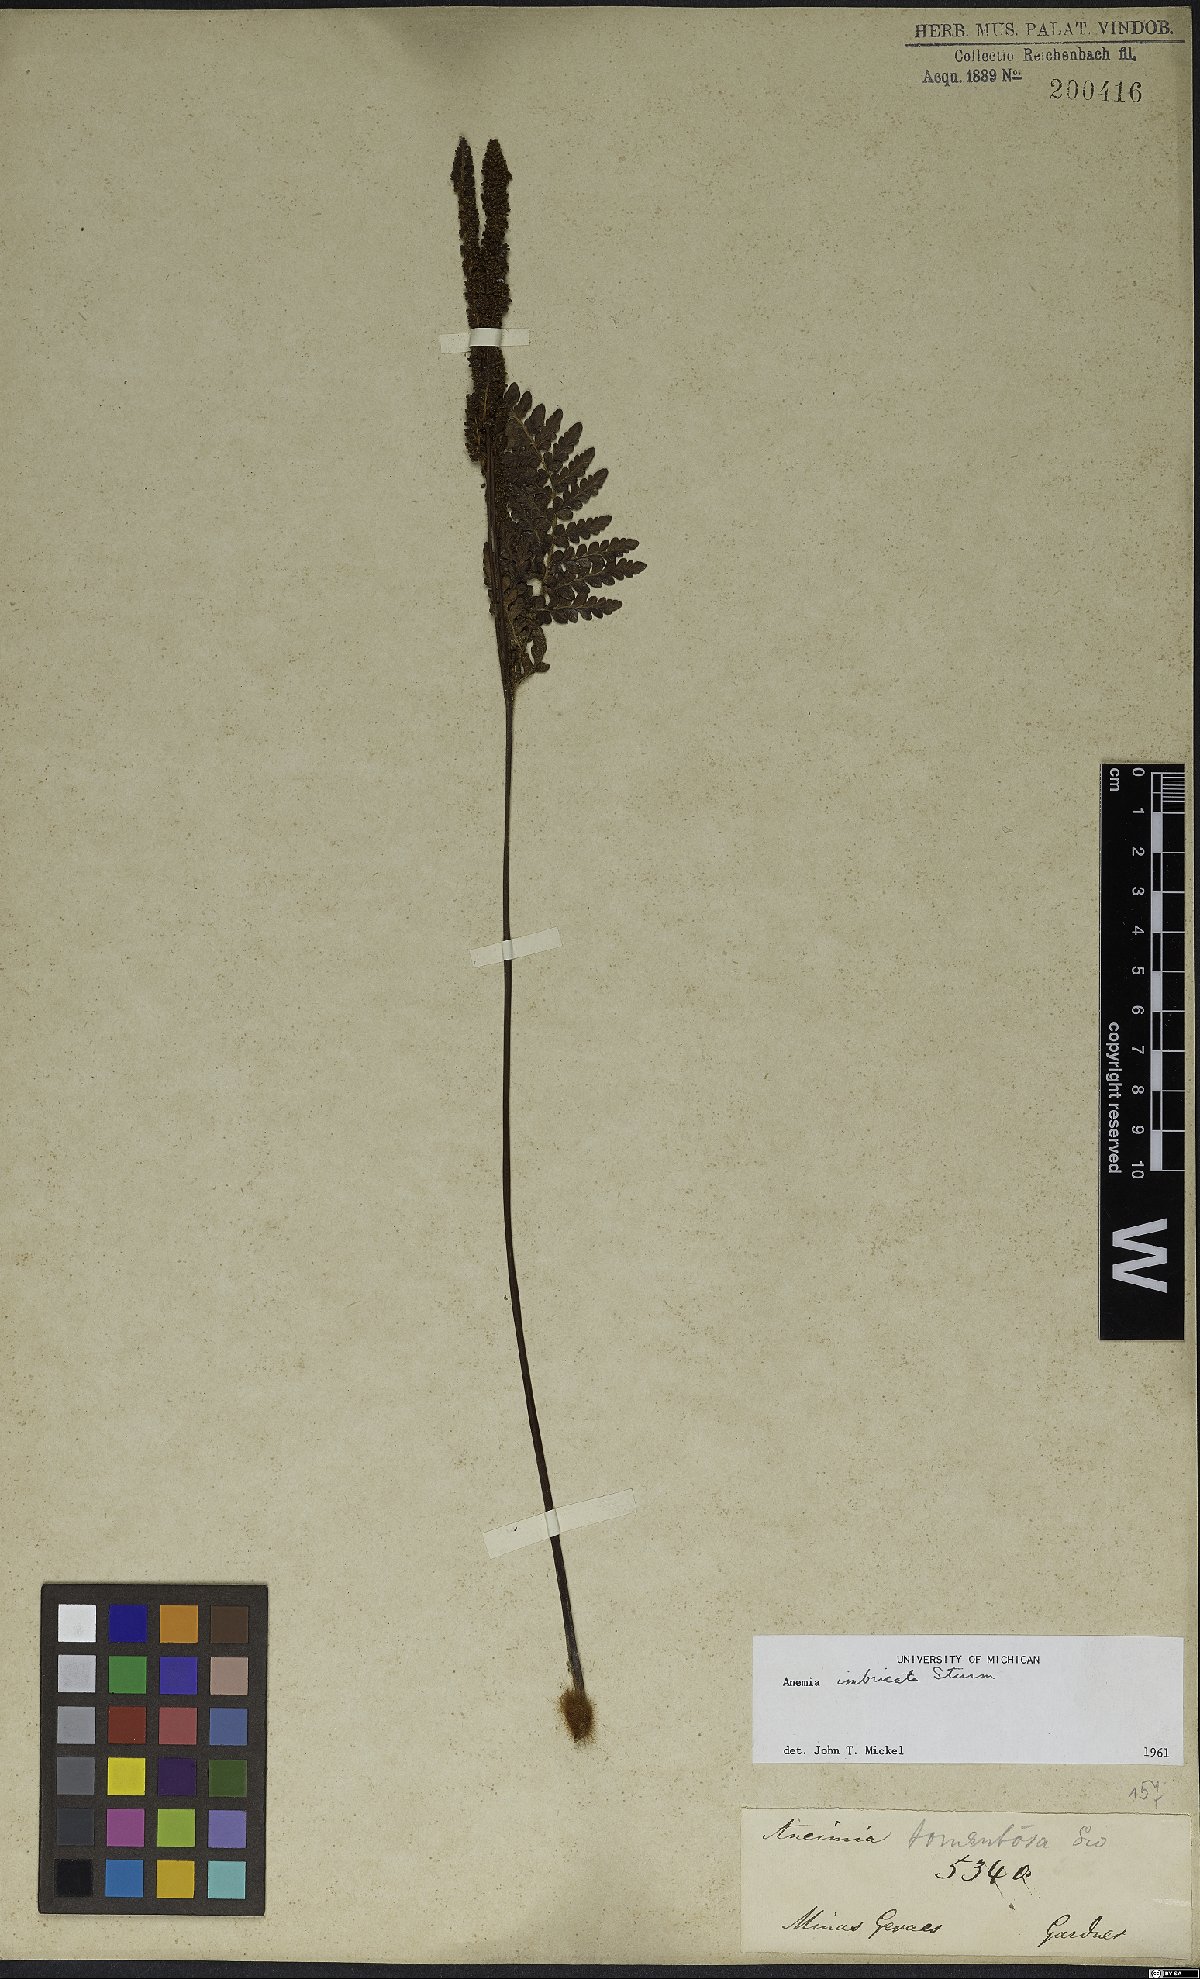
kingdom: Plantae
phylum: Tracheophyta
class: Polypodiopsida
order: Schizaeales
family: Anemiaceae
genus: Anemia
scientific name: Anemia imbricata
